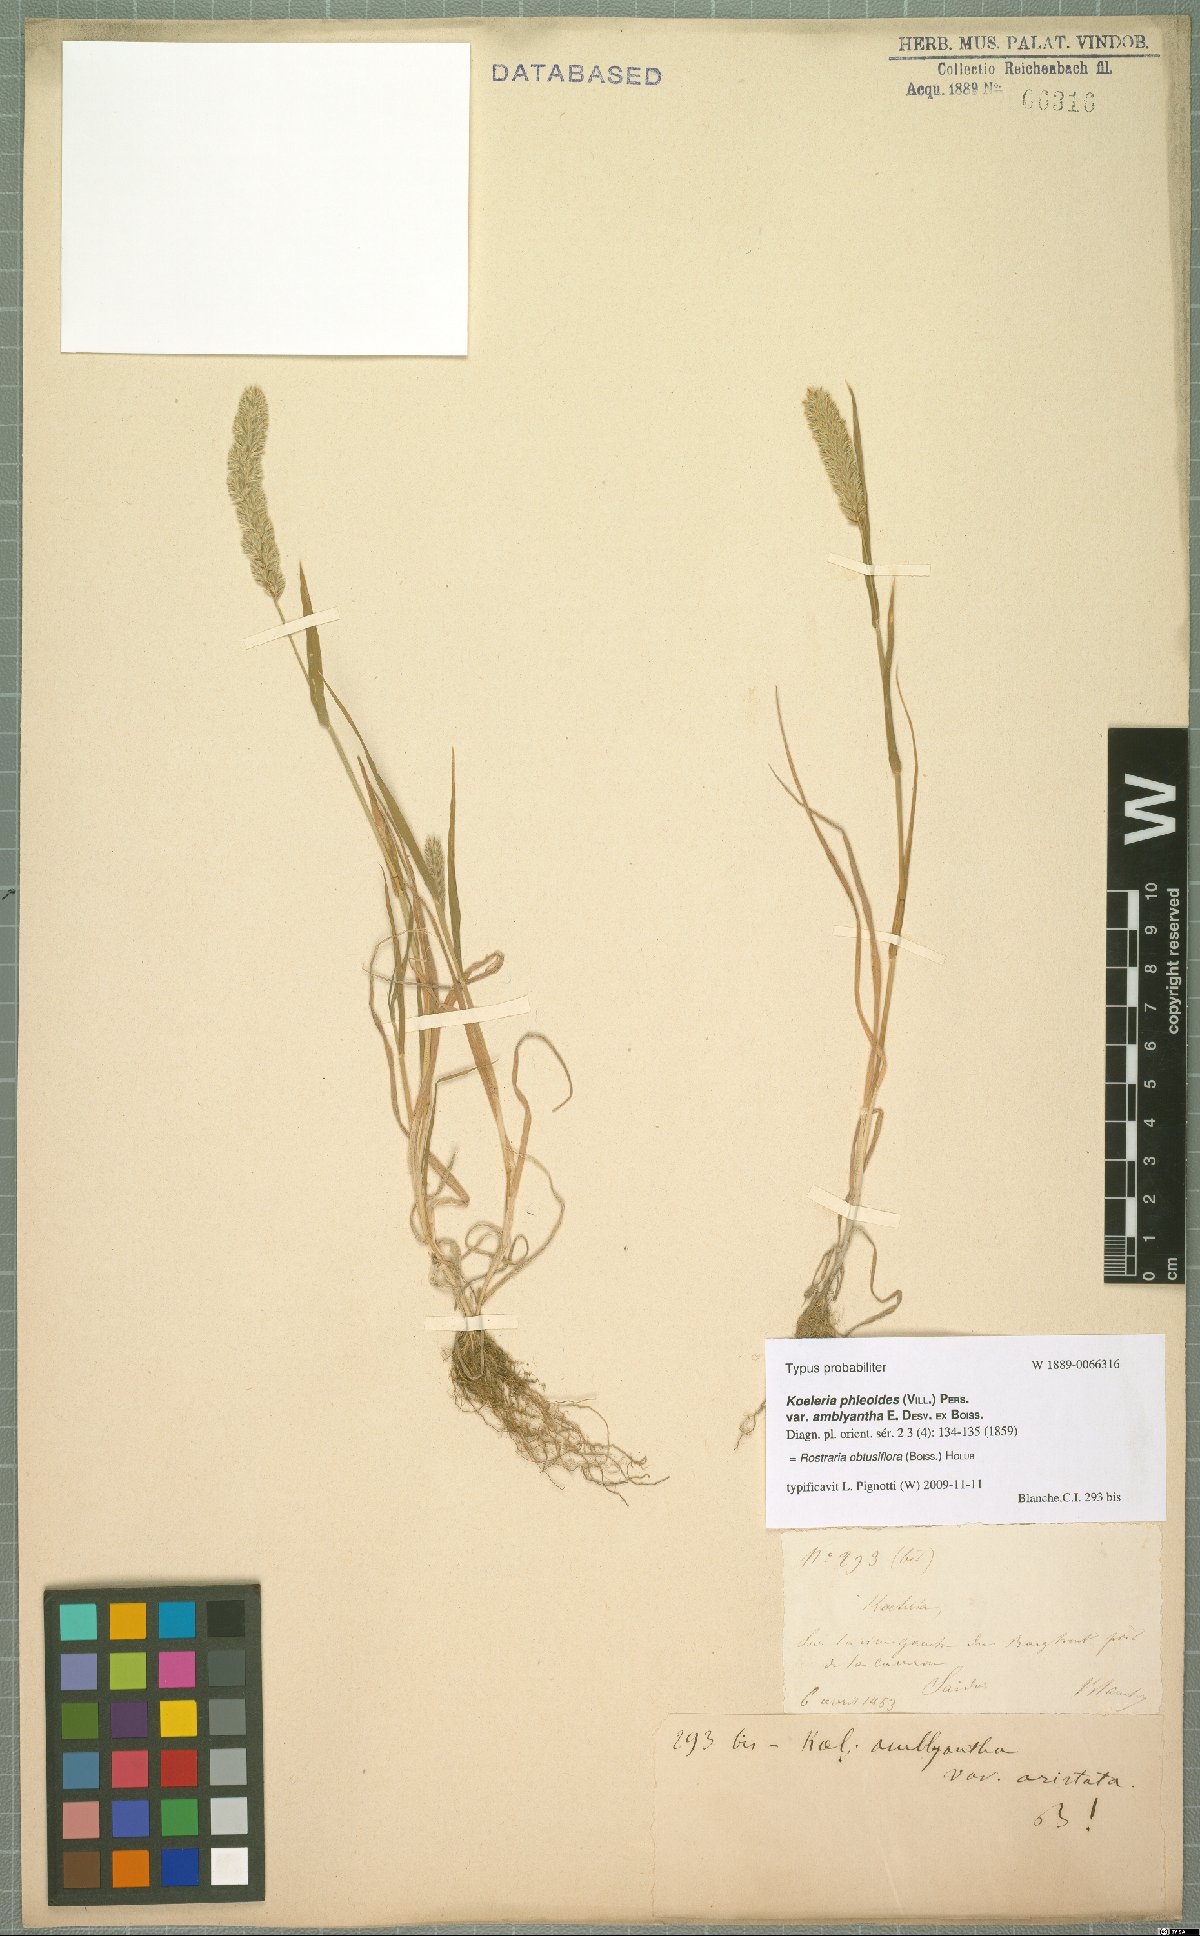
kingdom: Plantae
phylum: Tracheophyta
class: Liliopsida
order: Poales
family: Poaceae
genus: Rostraria
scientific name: Rostraria obtusiflora
